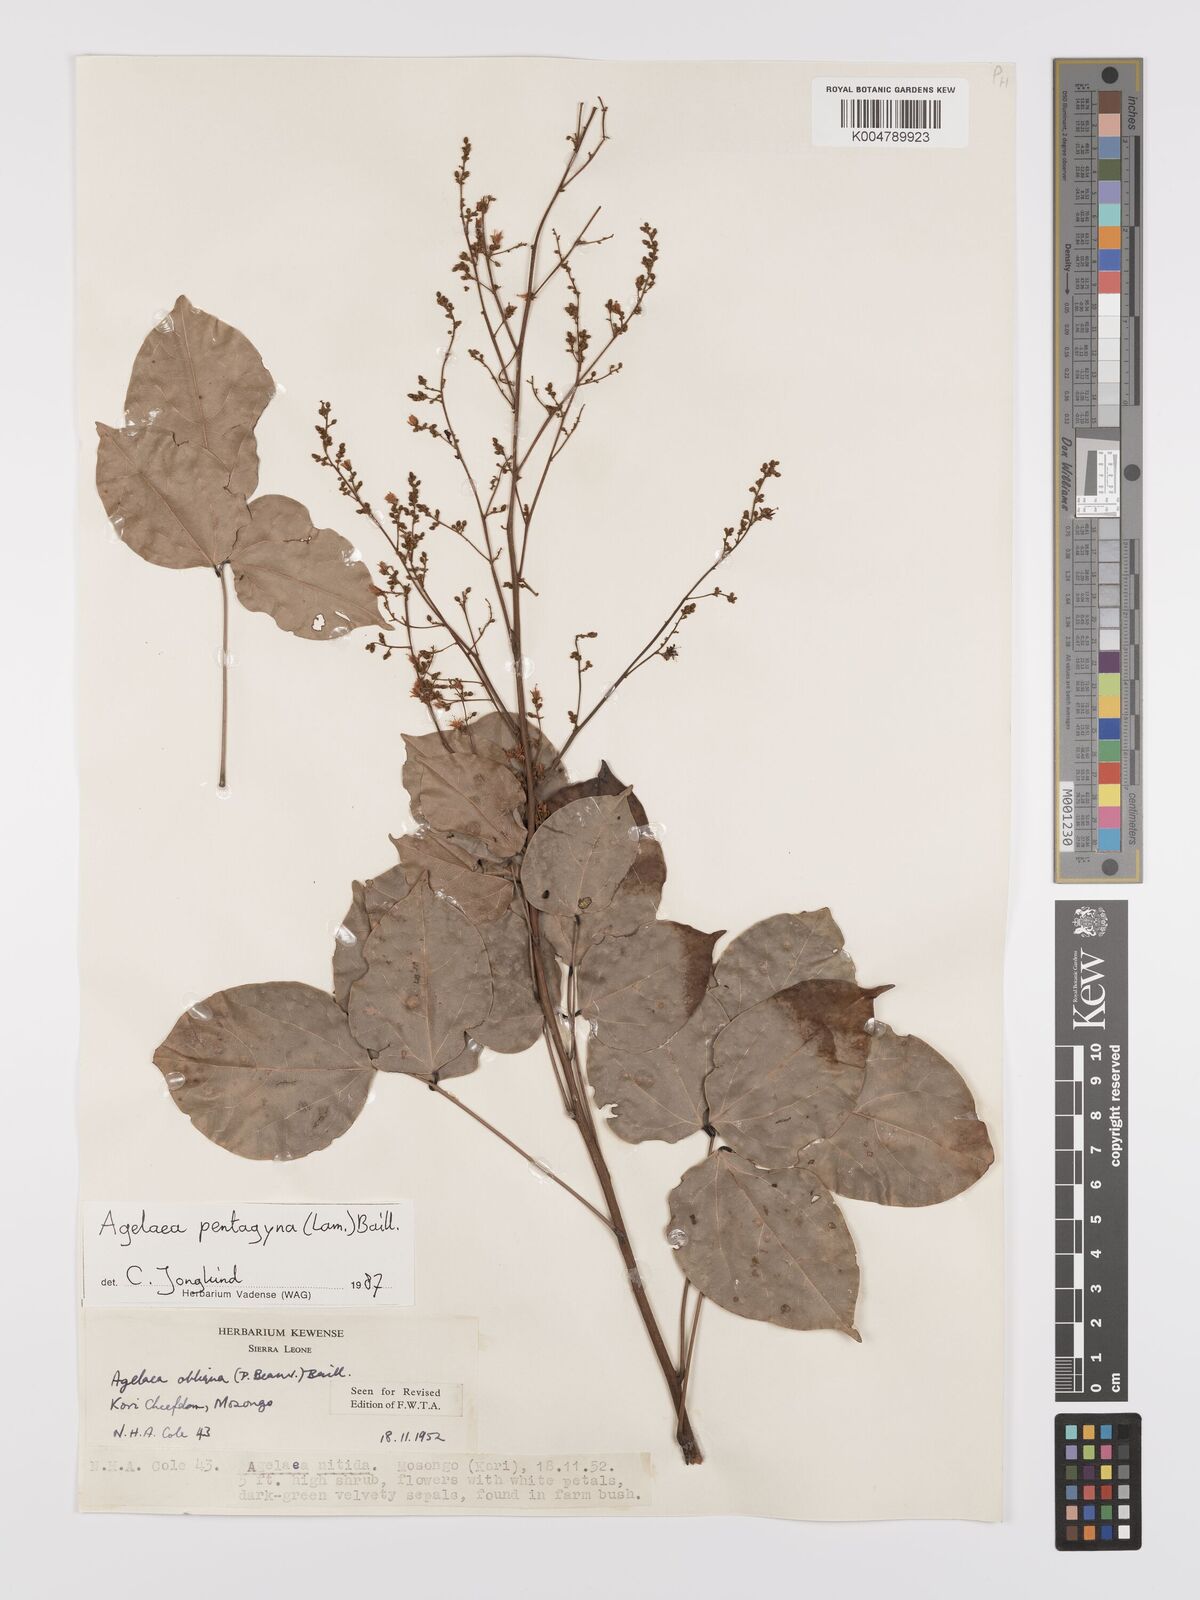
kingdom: Plantae
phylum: Tracheophyta
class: Magnoliopsida
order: Oxalidales
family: Connaraceae
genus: Agelaea
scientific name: Agelaea pentagyna
